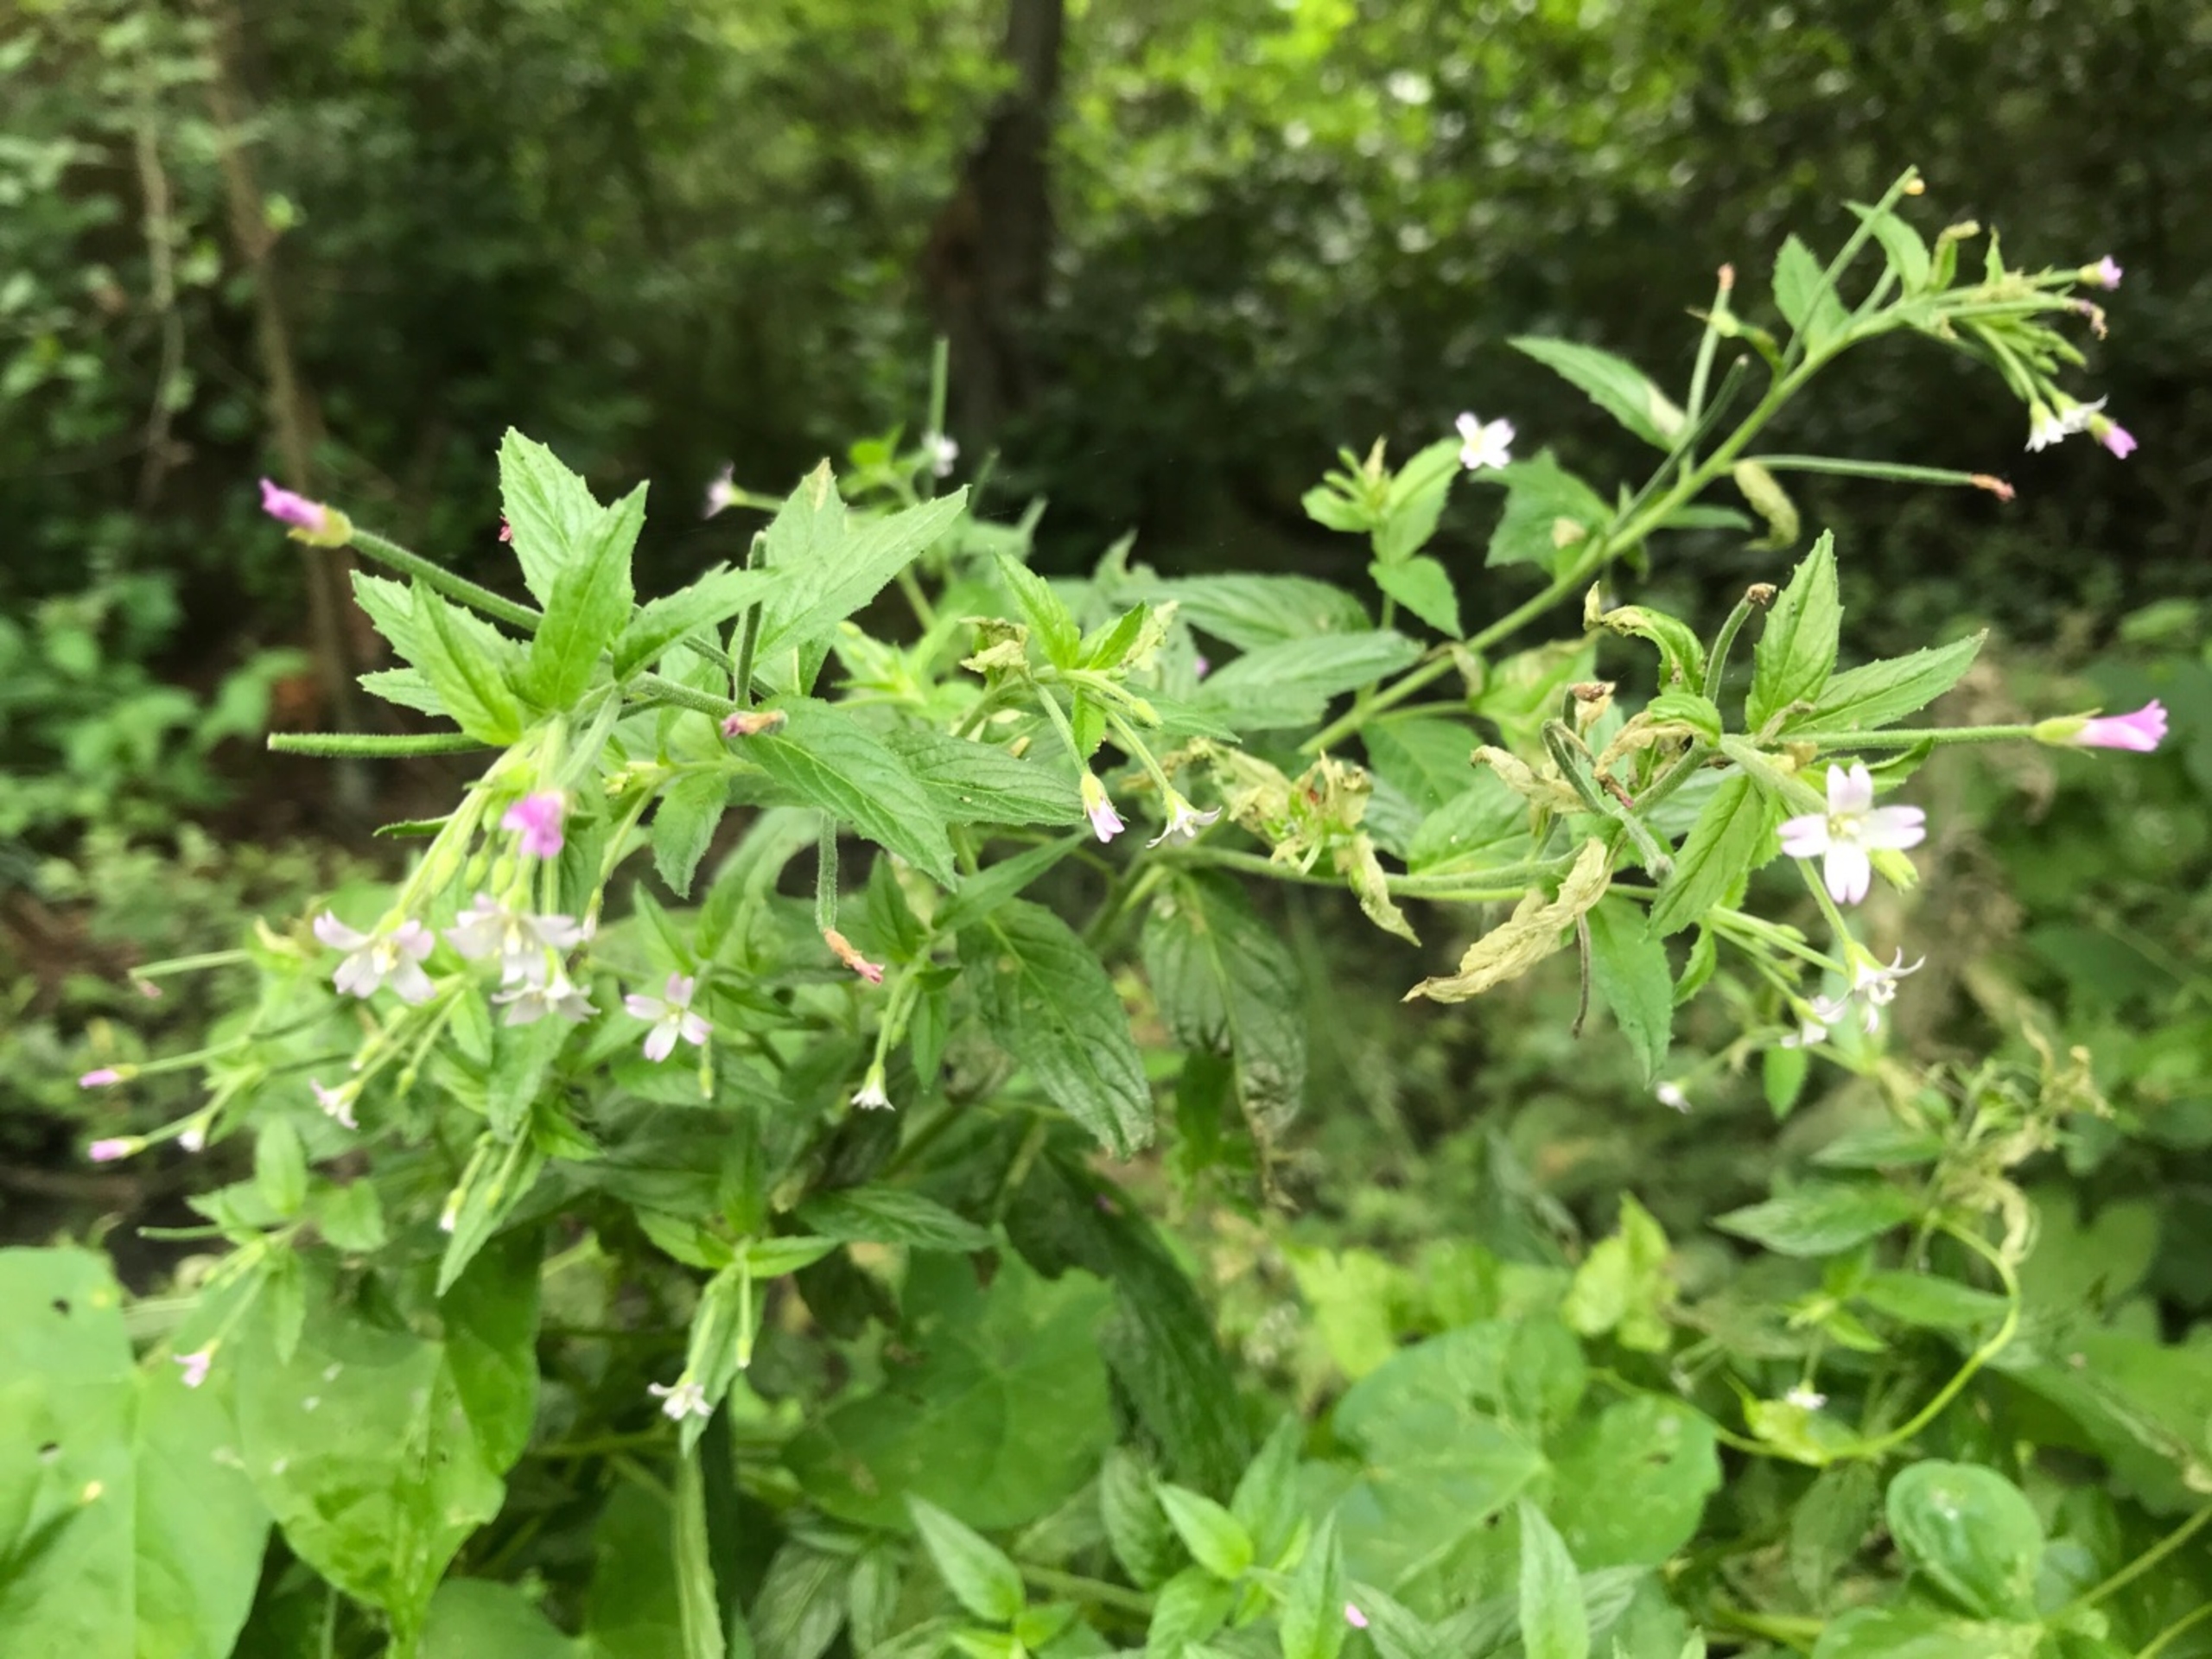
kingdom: Plantae
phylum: Tracheophyta
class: Magnoliopsida
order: Myrtales
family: Onagraceae
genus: Epilobium
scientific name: Epilobium ciliatum
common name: Kirtlet dueurt
